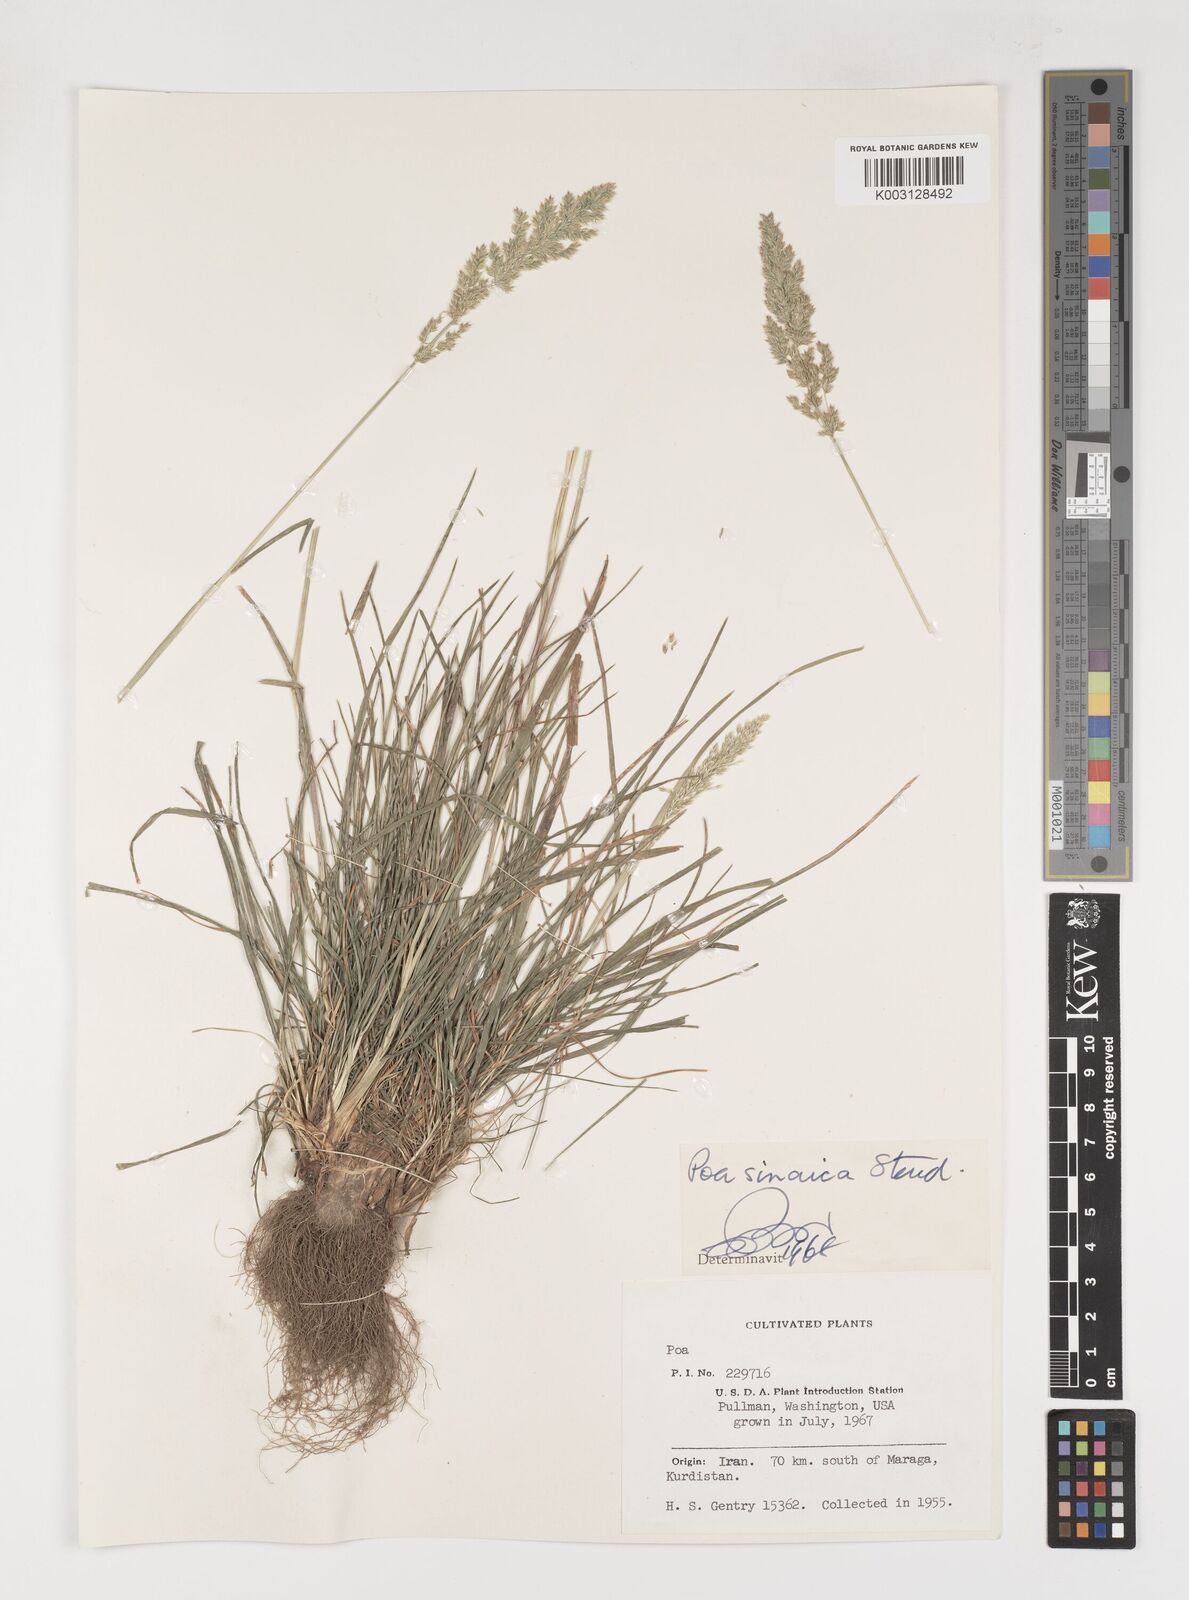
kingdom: Plantae
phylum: Tracheophyta
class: Liliopsida
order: Poales
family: Poaceae
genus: Poa
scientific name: Poa sinaica
